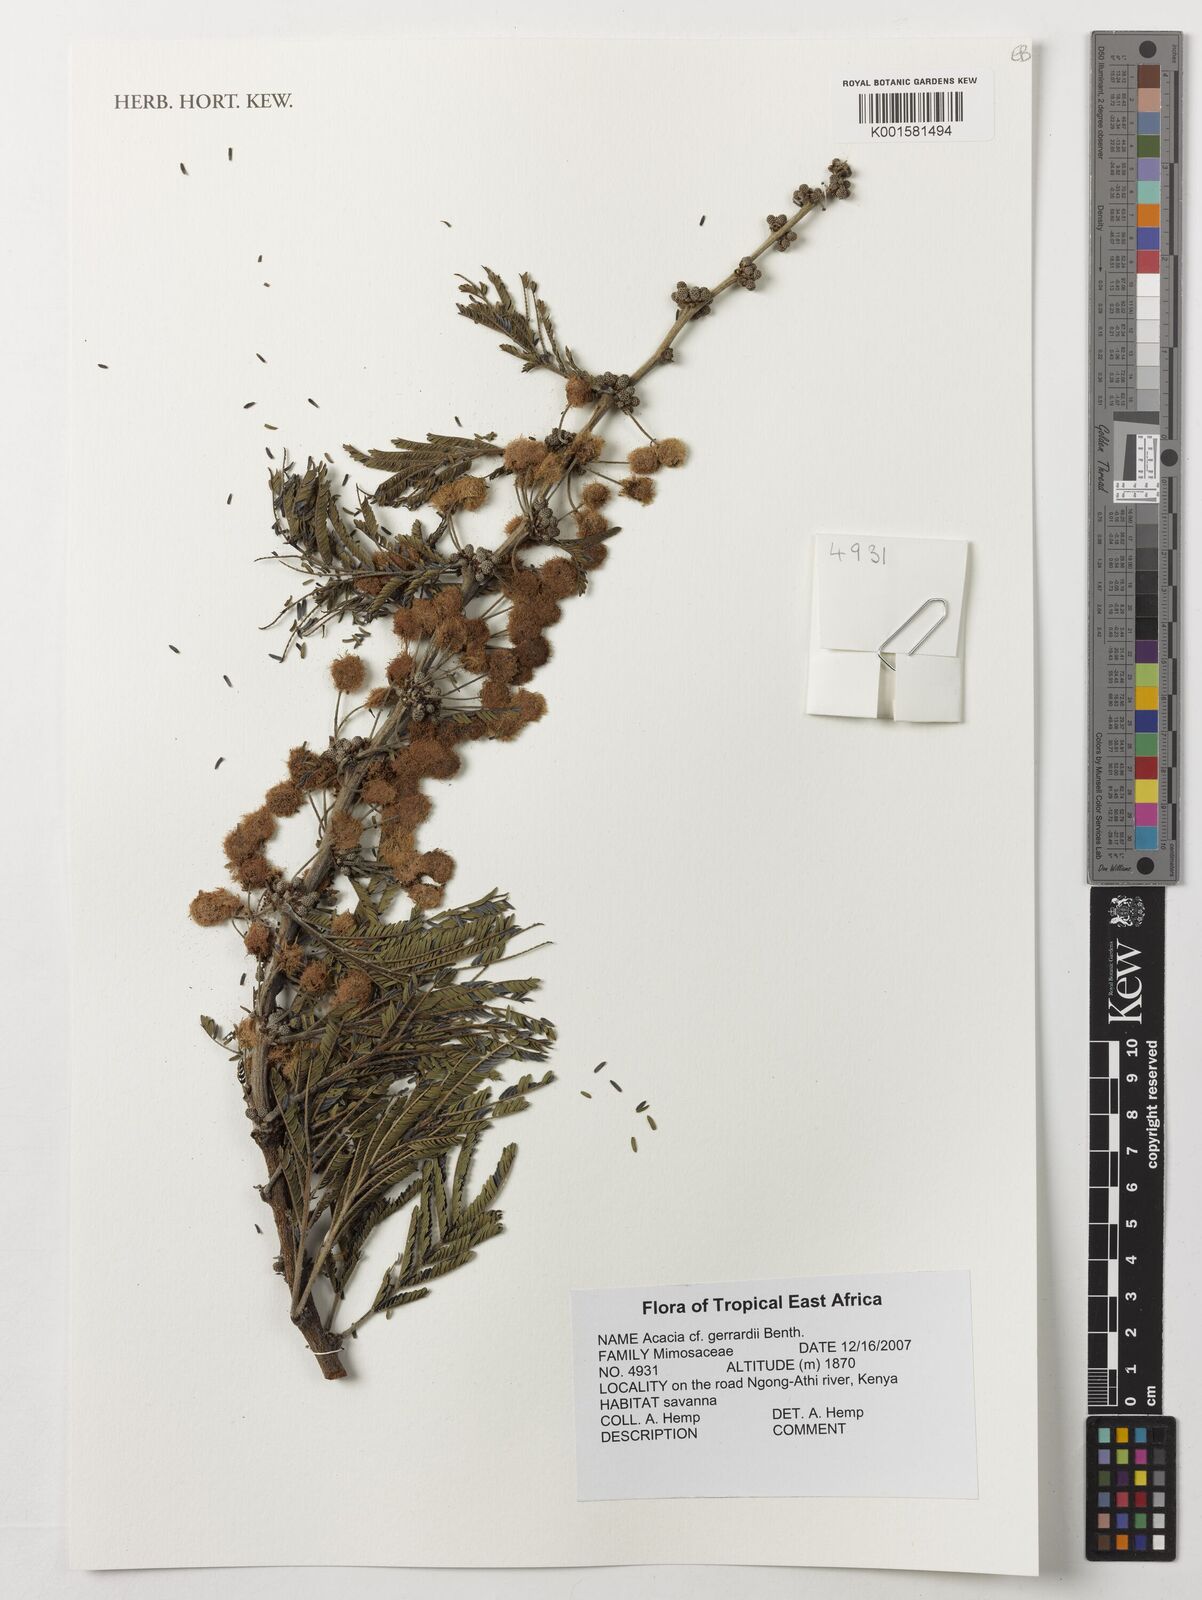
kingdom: Plantae
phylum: Tracheophyta
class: Magnoliopsida
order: Fabales
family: Fabaceae
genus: Vachellia
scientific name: Vachellia gerrardii
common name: Redthorn
